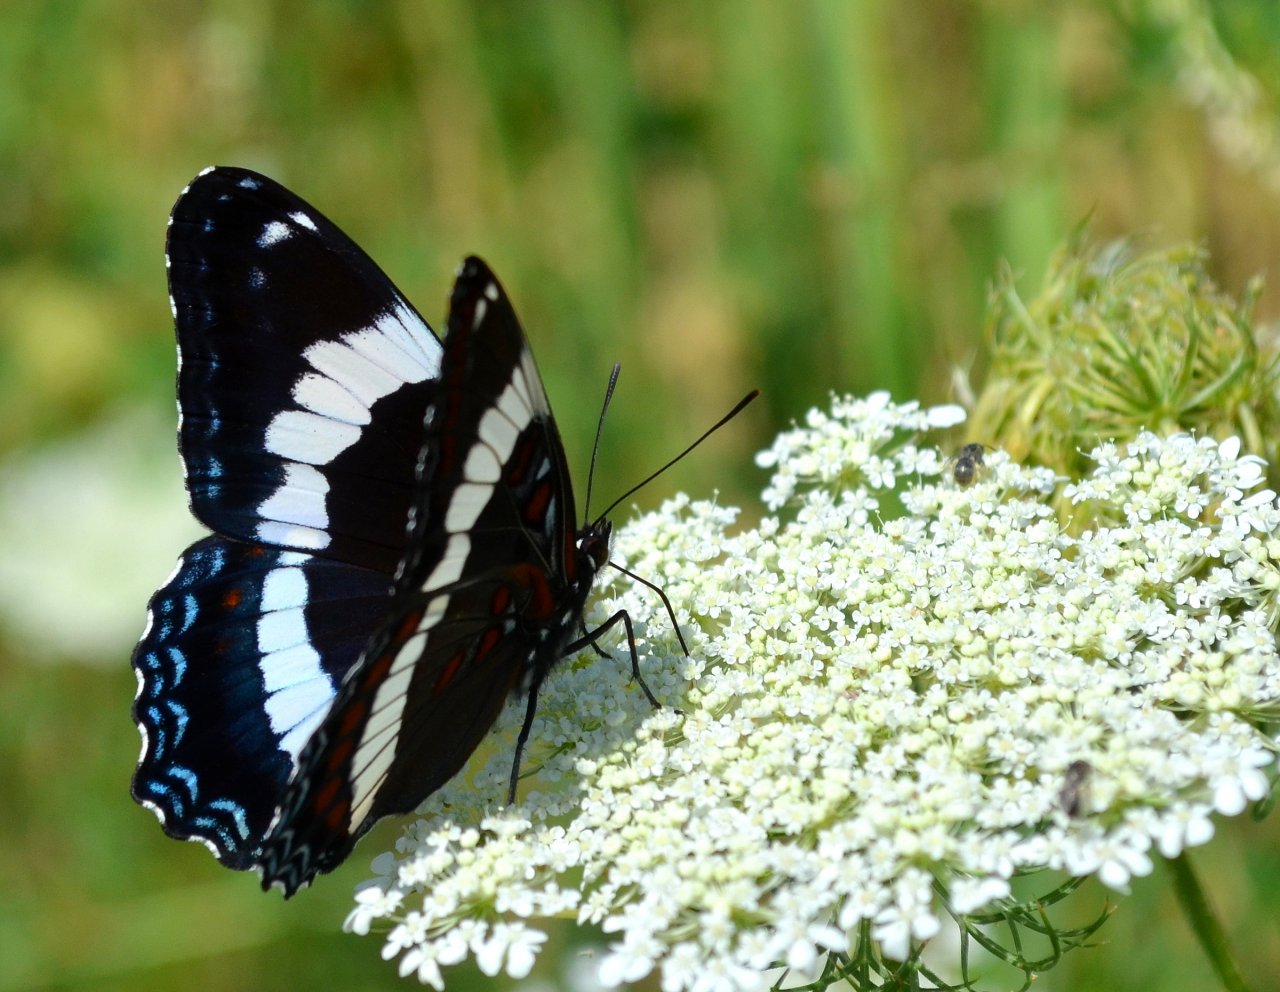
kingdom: Animalia
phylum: Arthropoda
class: Insecta
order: Lepidoptera
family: Nymphalidae
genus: Limenitis
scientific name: Limenitis arthemis
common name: Red-spotted Admiral
